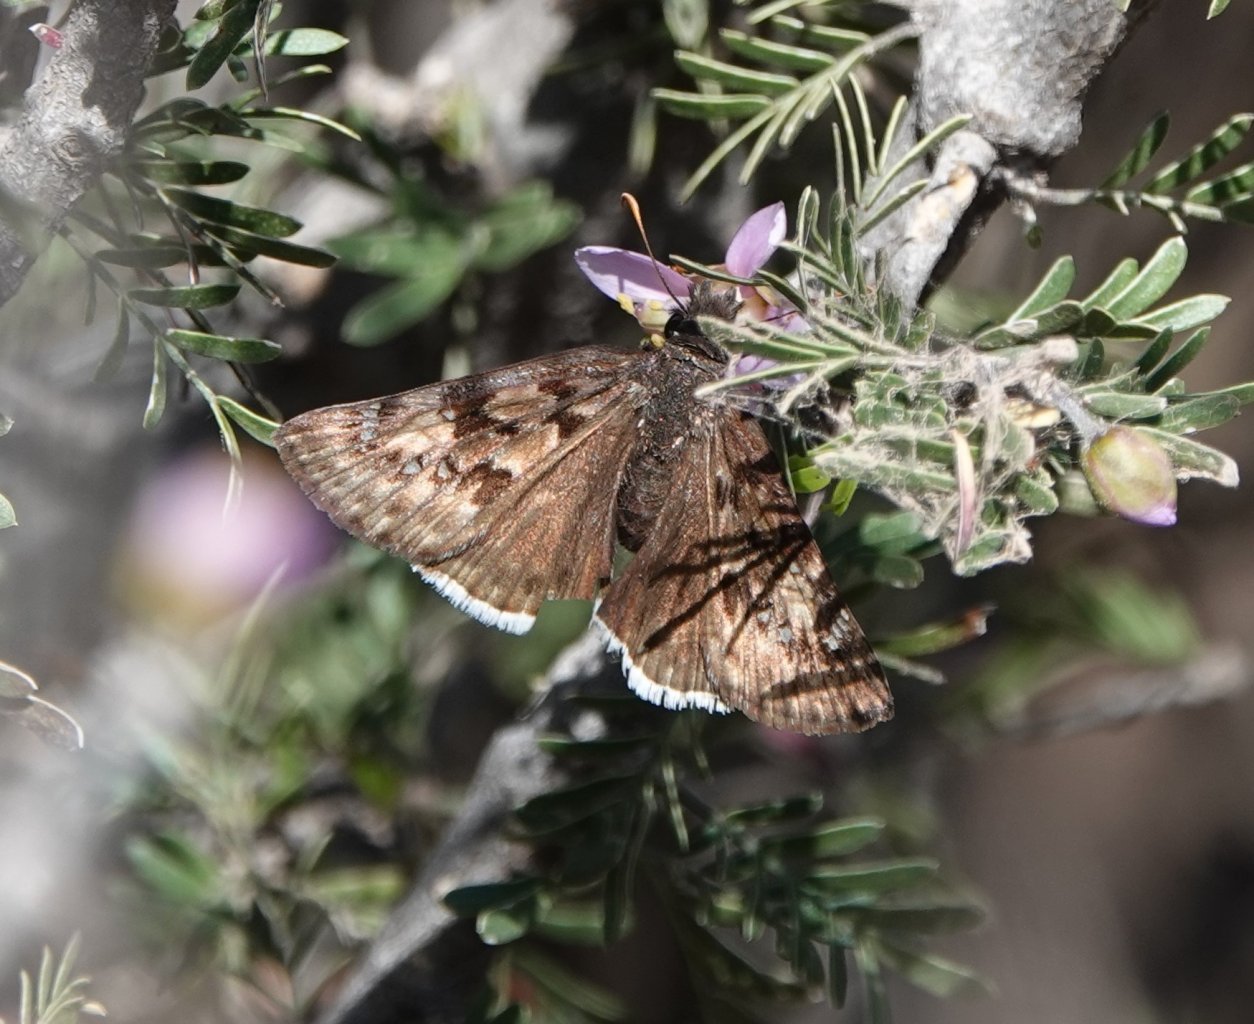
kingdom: Animalia
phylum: Arthropoda
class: Insecta
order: Lepidoptera
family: Hesperiidae
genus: Erynnis
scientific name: Erynnis tristis
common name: Mournful Duskywing
